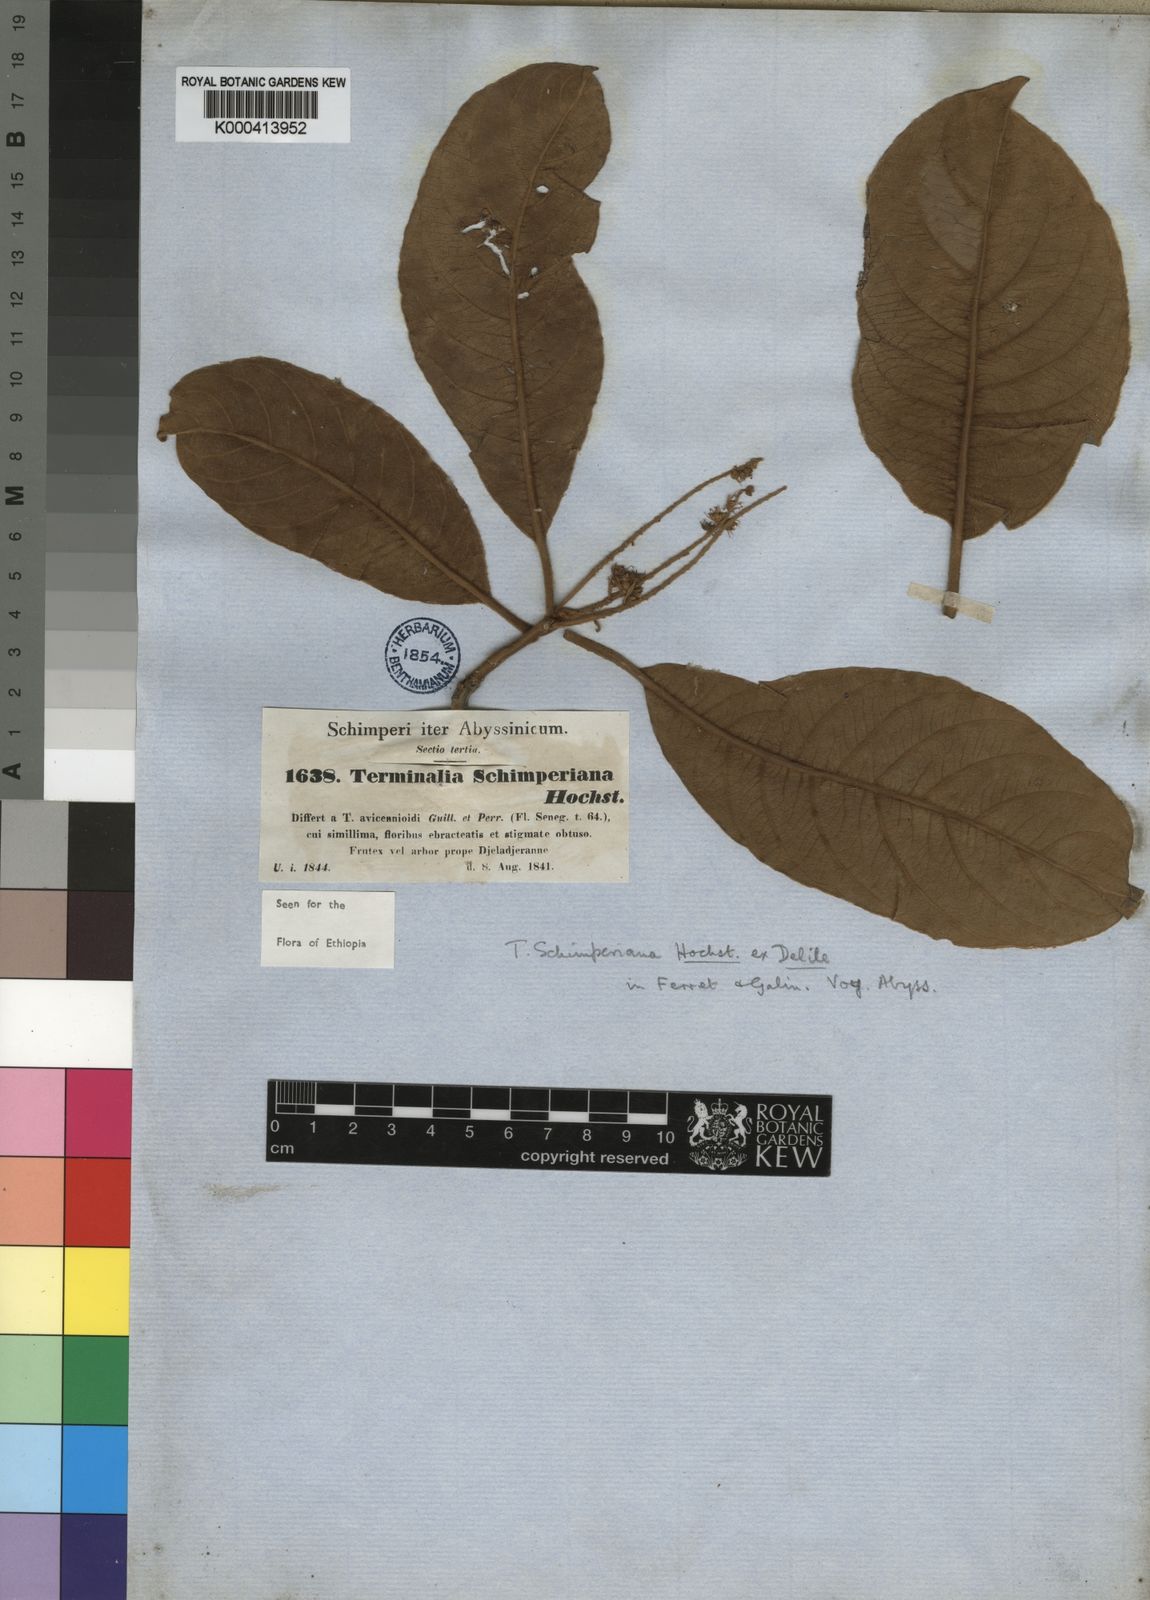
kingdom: Plantae
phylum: Tracheophyta
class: Magnoliopsida
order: Myrtales
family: Combretaceae
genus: Terminalia
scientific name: Terminalia
